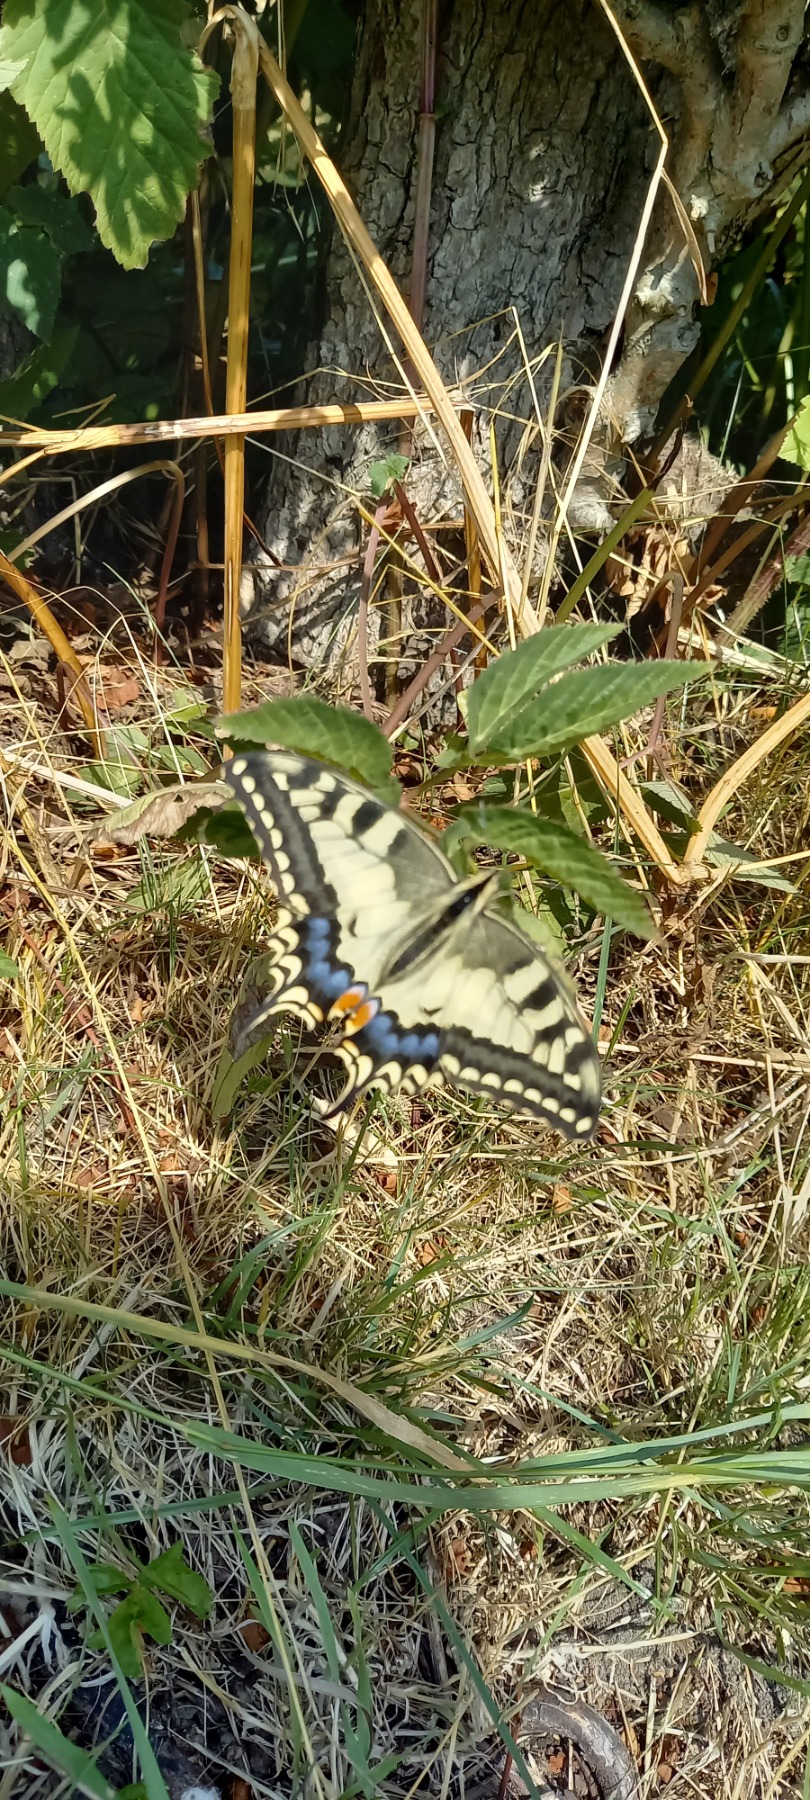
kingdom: Animalia
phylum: Arthropoda
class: Insecta
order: Lepidoptera
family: Papilionidae
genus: Papilio
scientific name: Papilio machaon
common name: Svalehale
